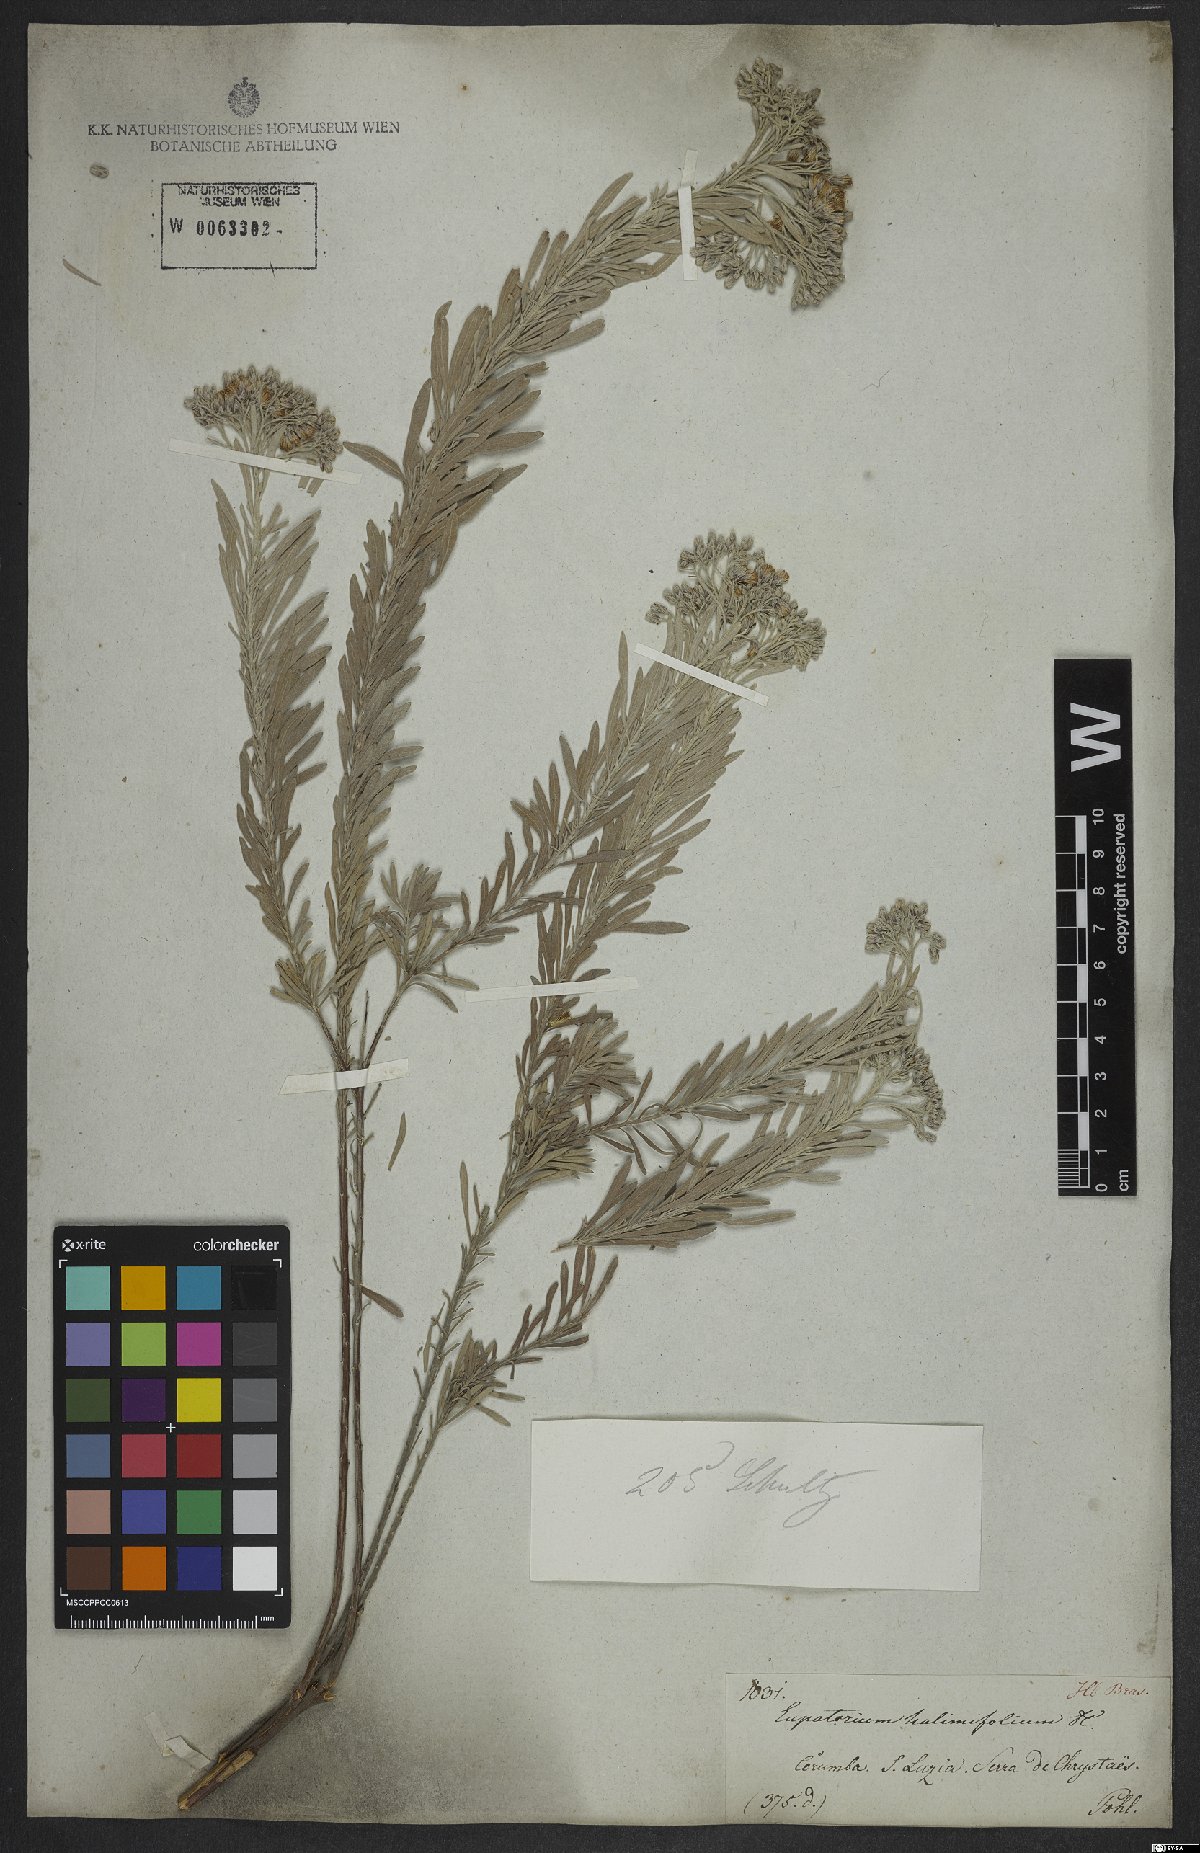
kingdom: Plantae
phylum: Tracheophyta
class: Magnoliopsida
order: Asterales
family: Asteraceae
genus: Disynaphia
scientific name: Disynaphia halimifolia
